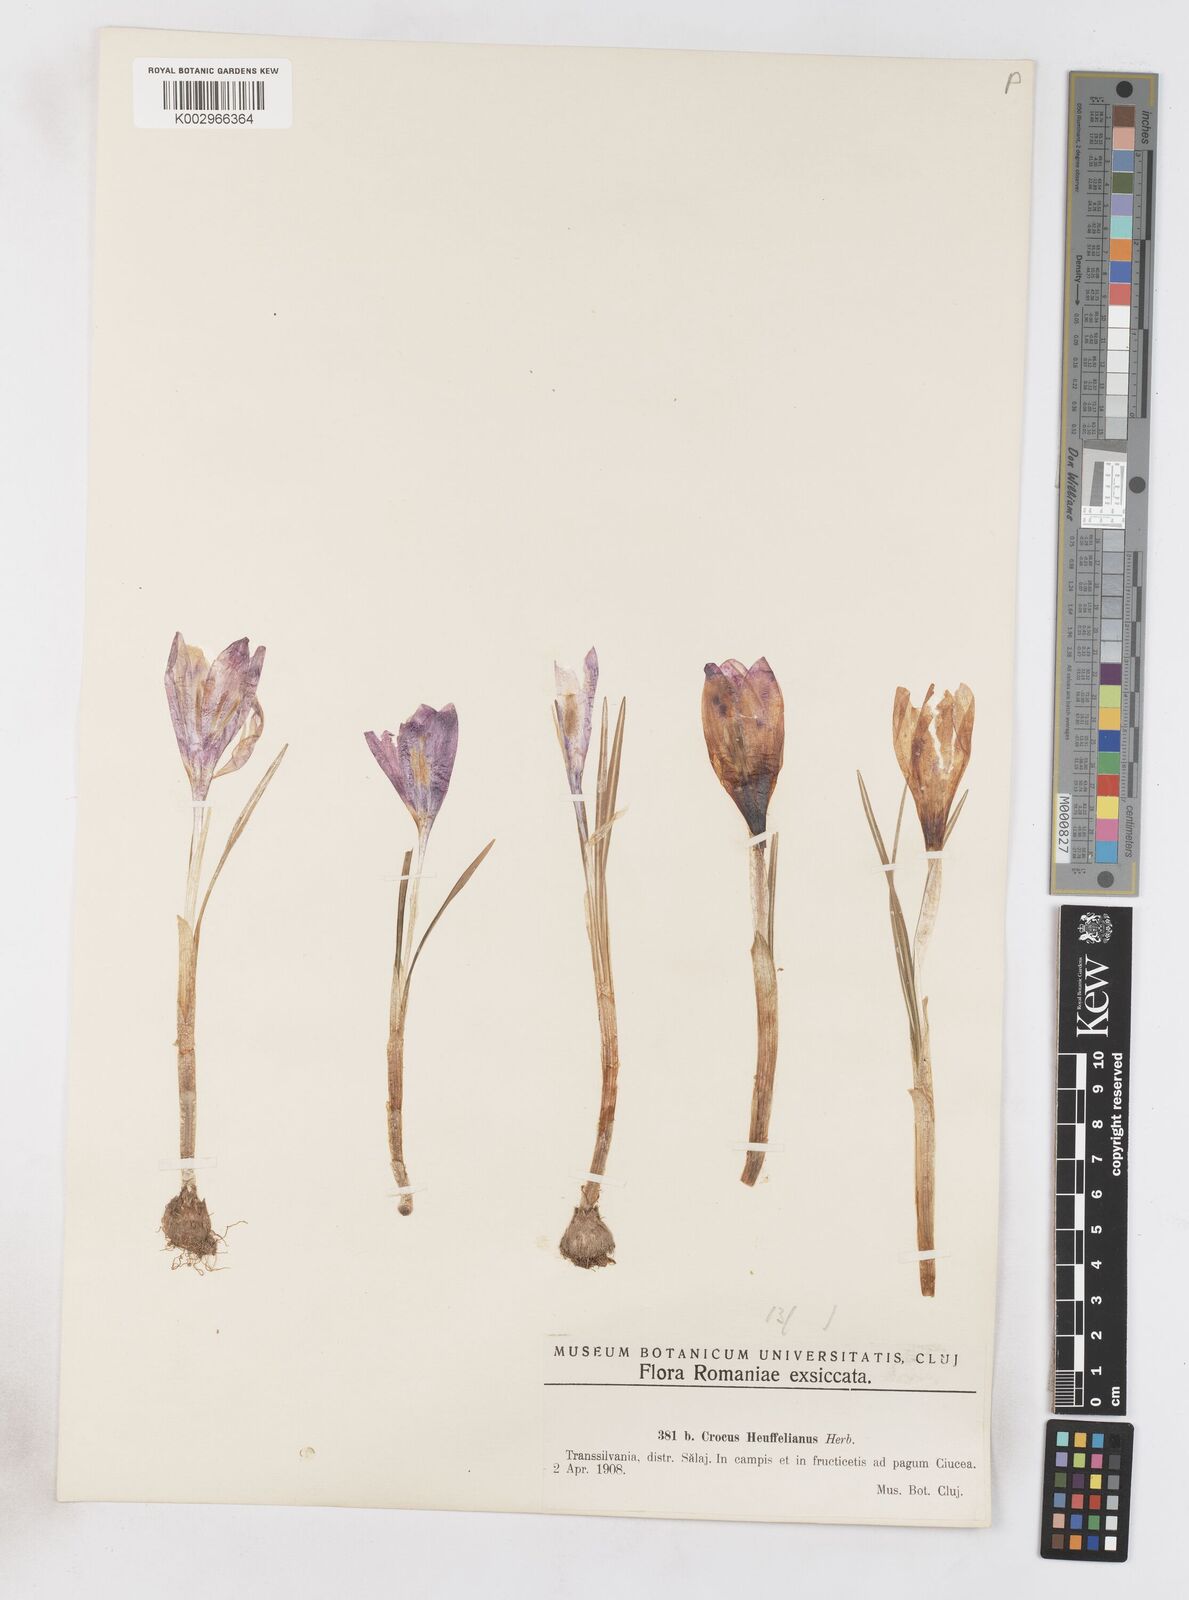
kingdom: Plantae
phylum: Tracheophyta
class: Liliopsida
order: Asparagales
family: Iridaceae
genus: Crocus
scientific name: Crocus vernus
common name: Spring crocus
